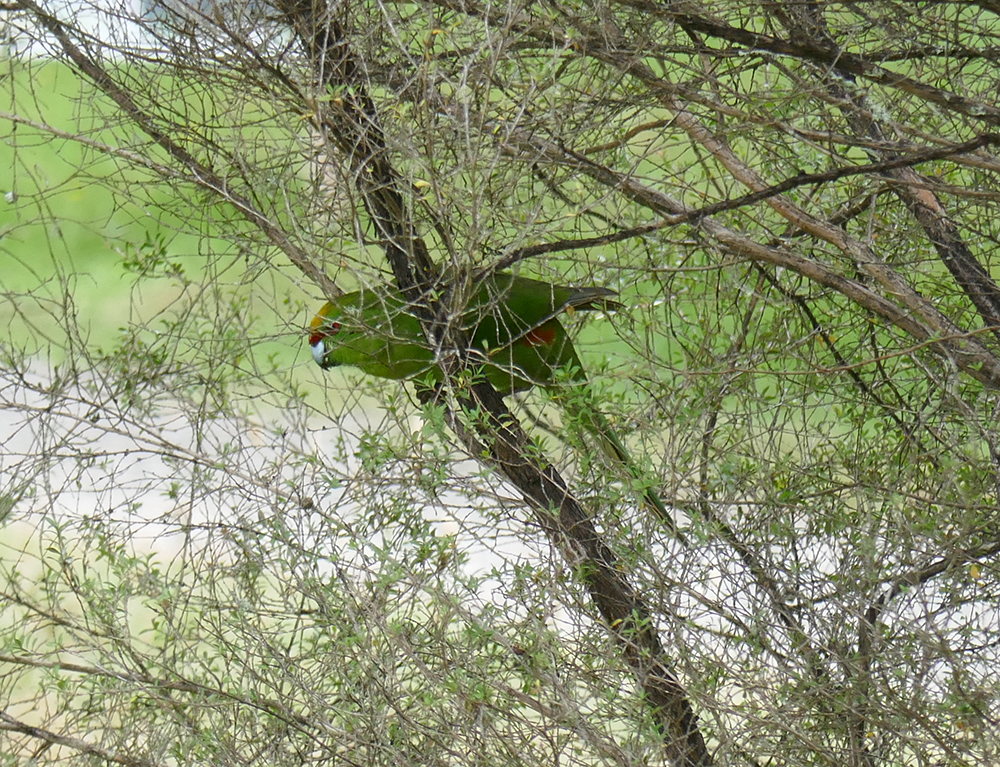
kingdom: Animalia
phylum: Chordata
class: Aves
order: Psittaciformes
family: Psittacidae
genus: Cyanoramphus
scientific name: Cyanoramphus auriceps
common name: Yellow-crowned parakeet
